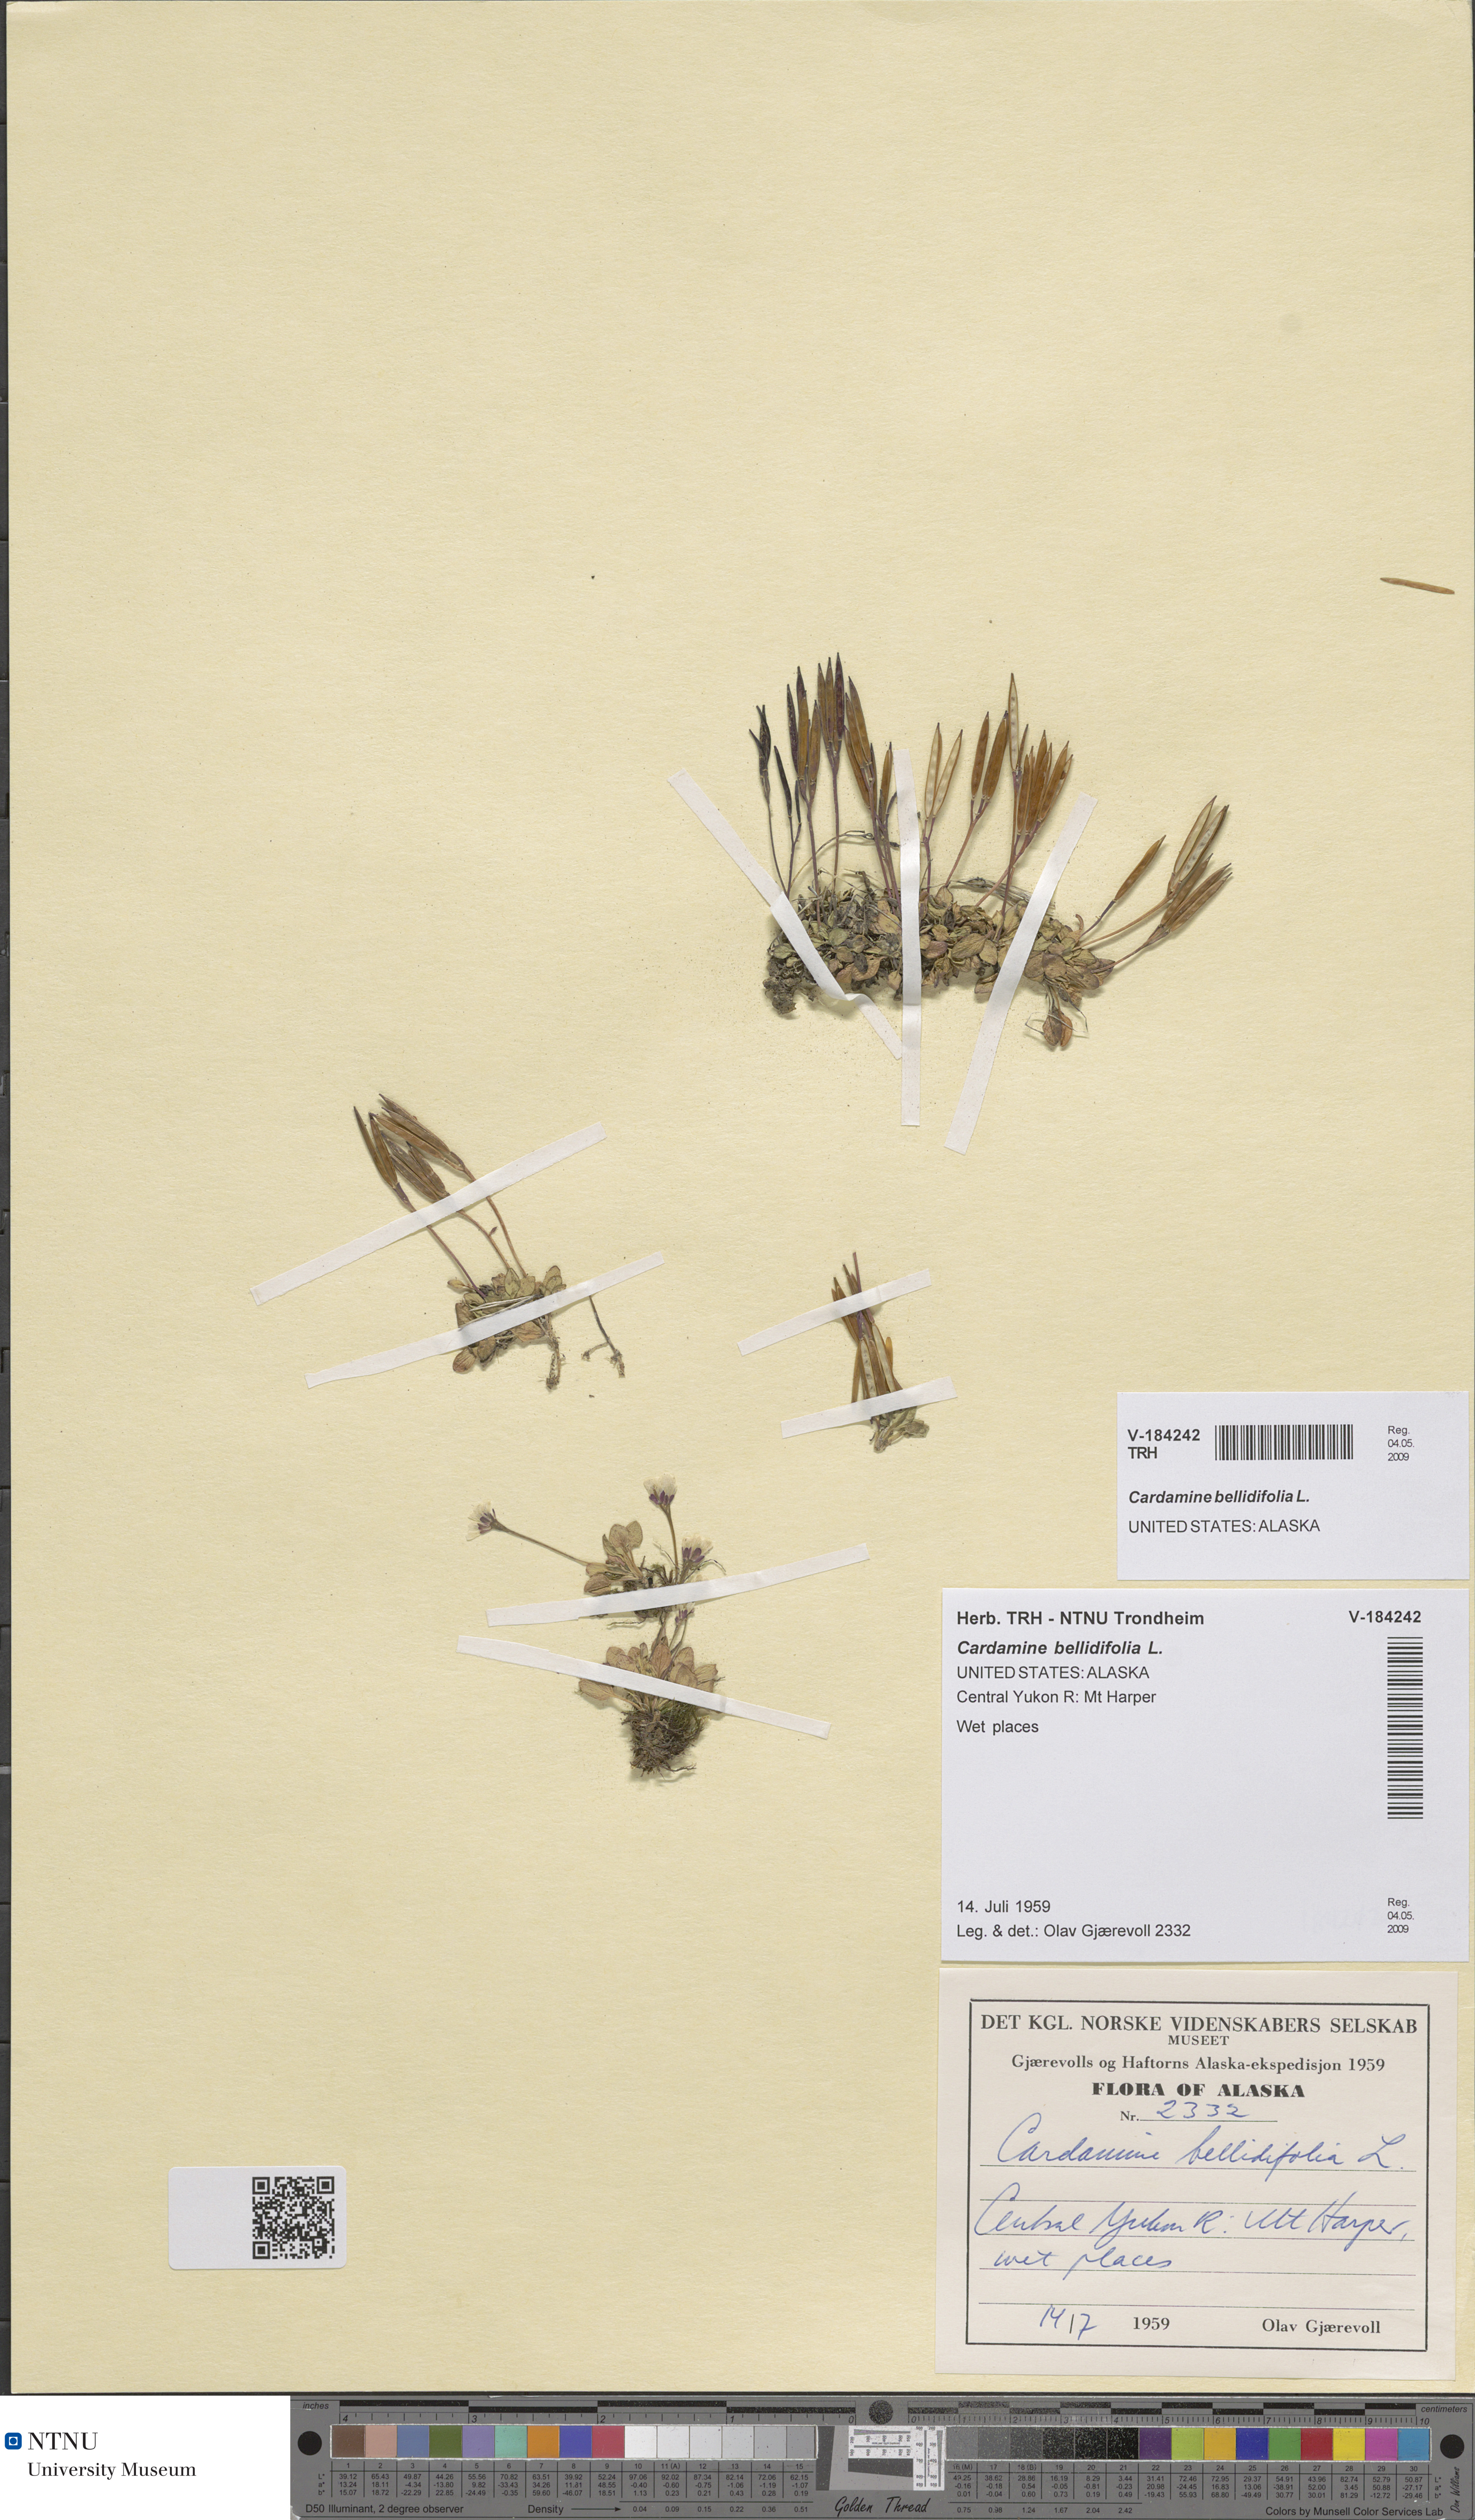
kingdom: Plantae
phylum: Tracheophyta
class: Magnoliopsida
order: Brassicales
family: Brassicaceae
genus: Cardamine
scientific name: Cardamine bellidifolia
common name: Alpine bittercress
